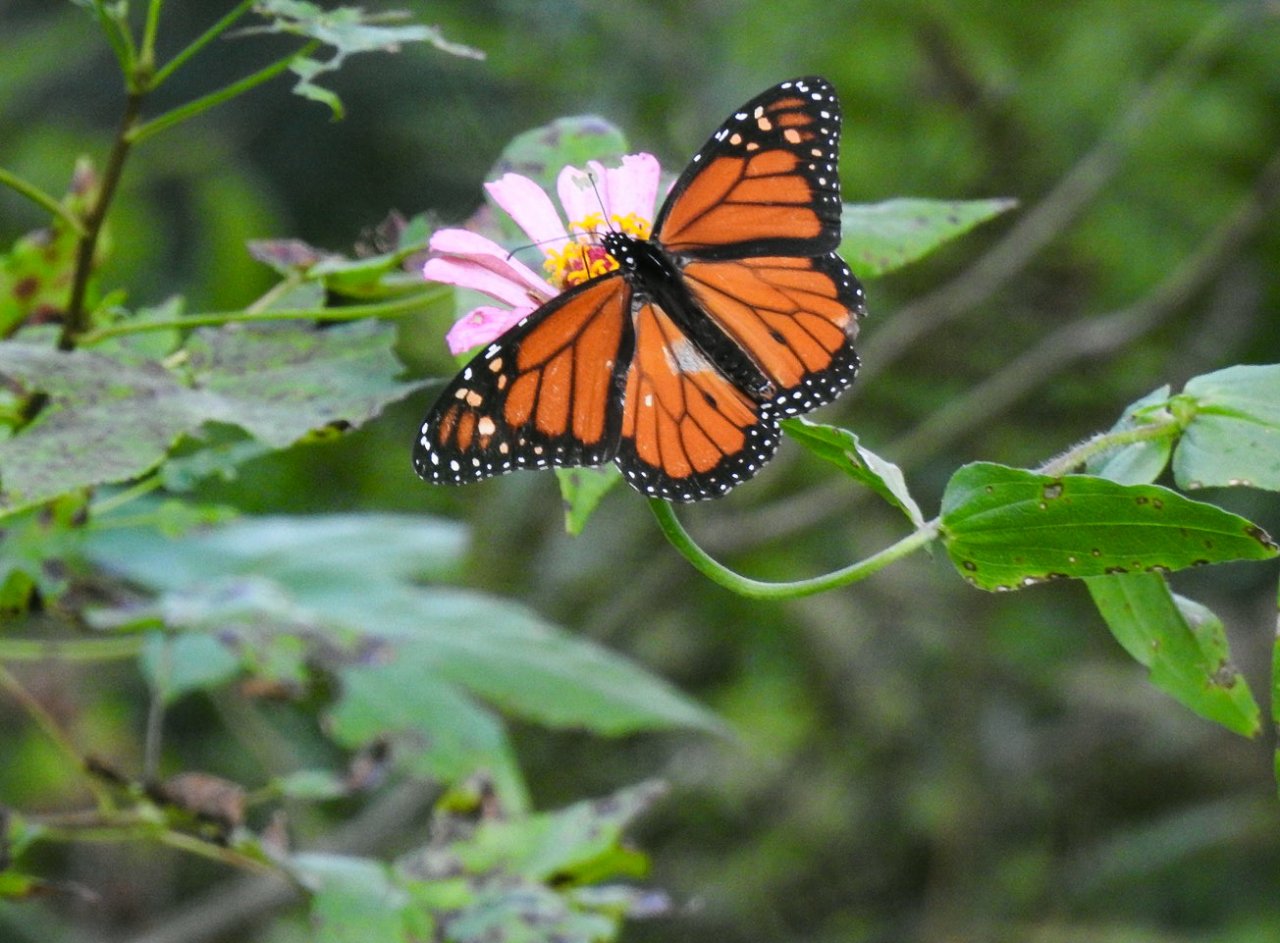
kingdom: Animalia
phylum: Arthropoda
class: Insecta
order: Lepidoptera
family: Nymphalidae
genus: Danaus
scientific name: Danaus plexippus
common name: Monarch
